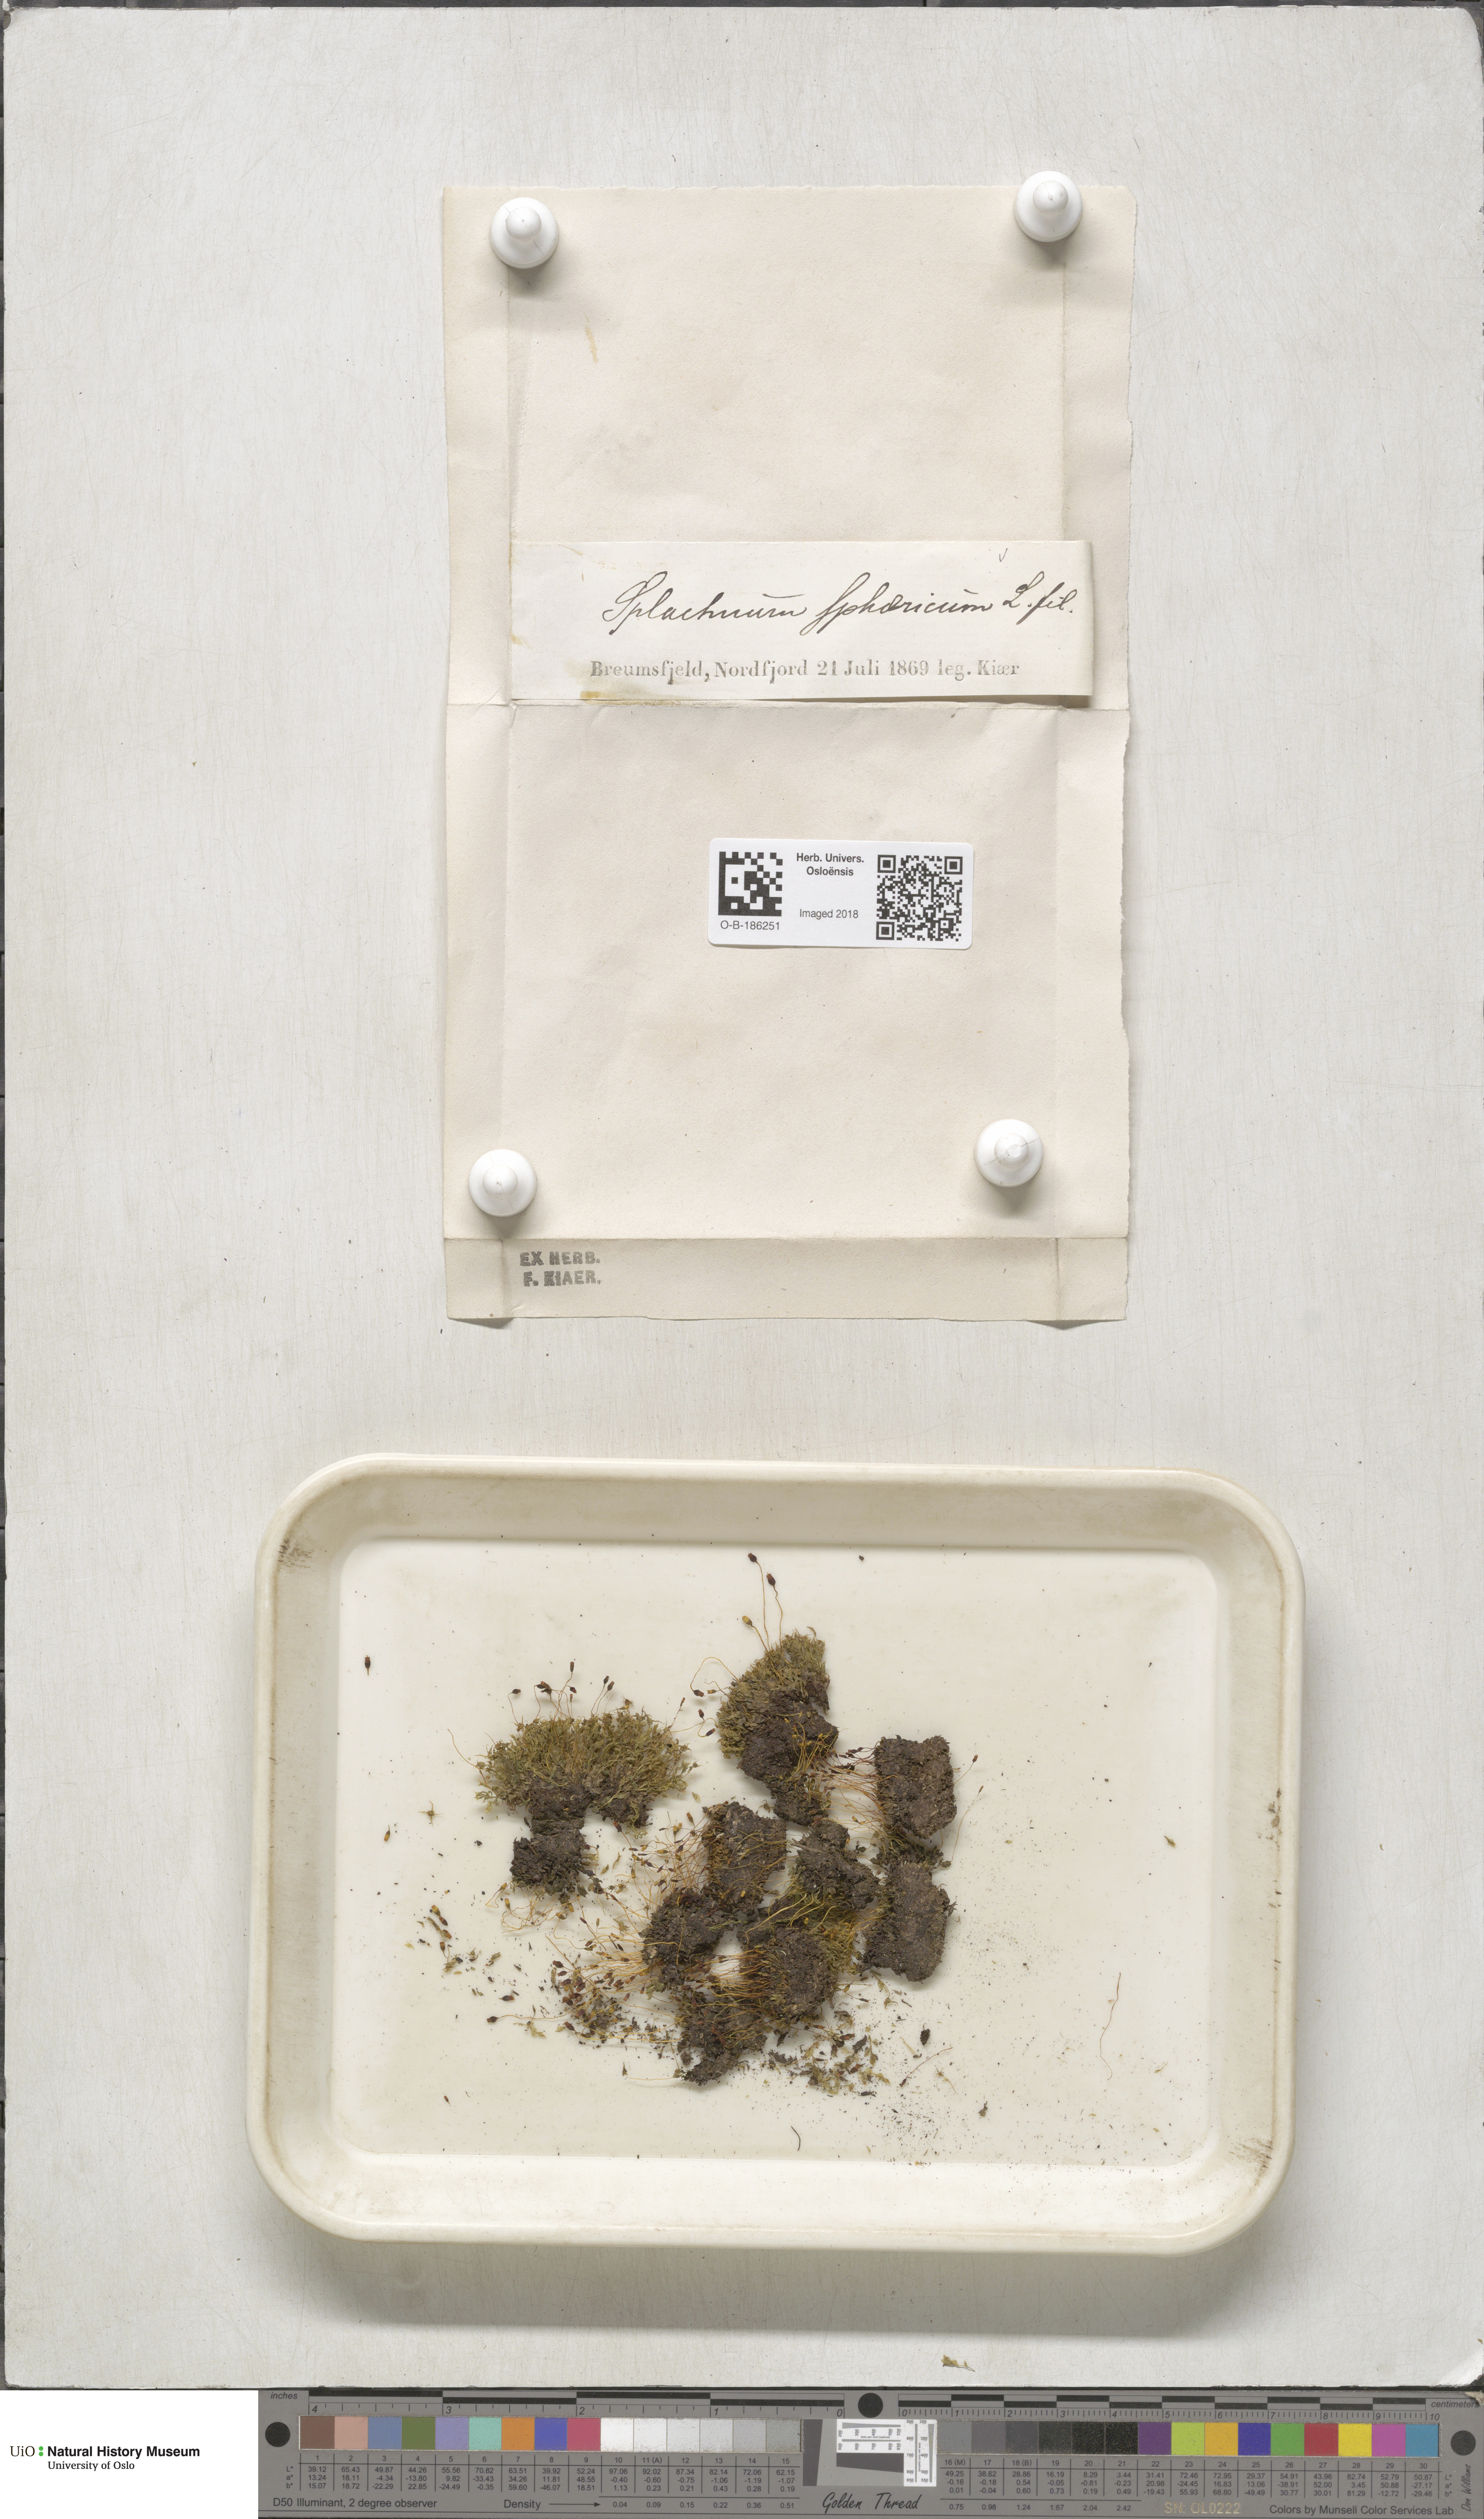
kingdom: Plantae
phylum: Bryophyta
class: Bryopsida
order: Splachnales
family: Splachnaceae
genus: Splachnum
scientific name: Splachnum sphaericum
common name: Round-fruited dung moss
